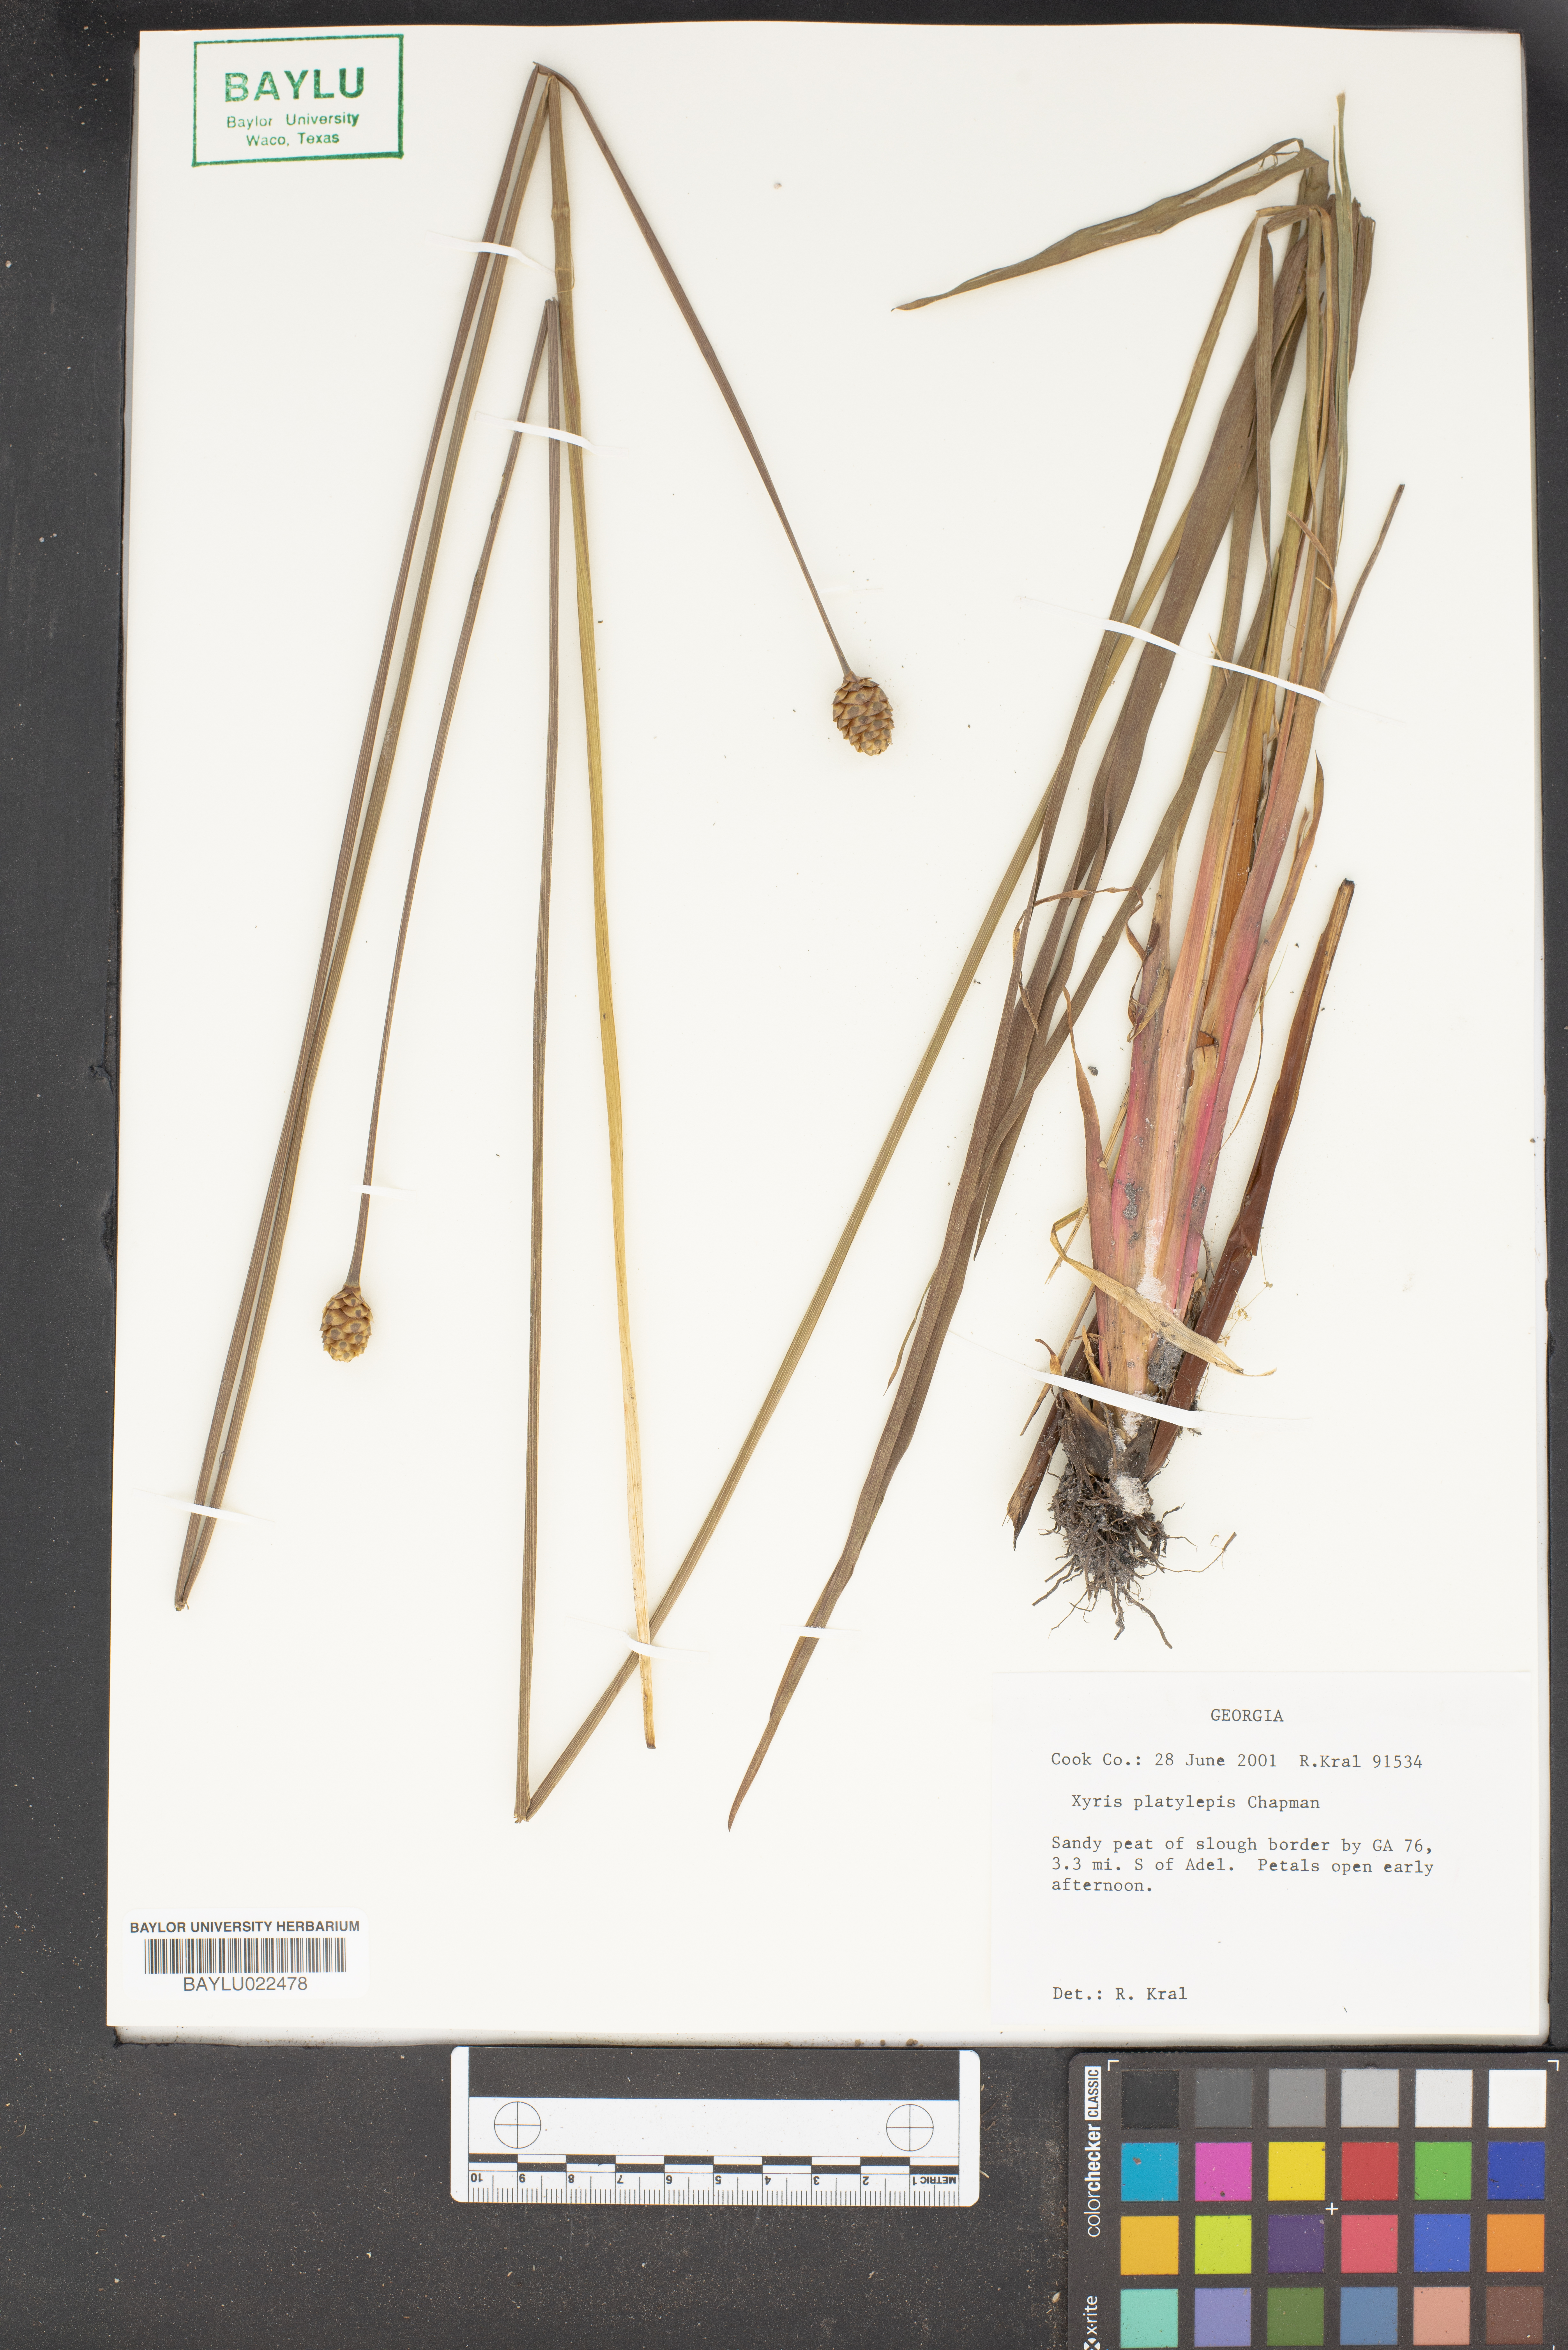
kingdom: Plantae
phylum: Tracheophyta
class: Liliopsida
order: Poales
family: Xyridaceae
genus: Xyris
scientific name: Xyris platylepis
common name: Tall yelloweyed grass
